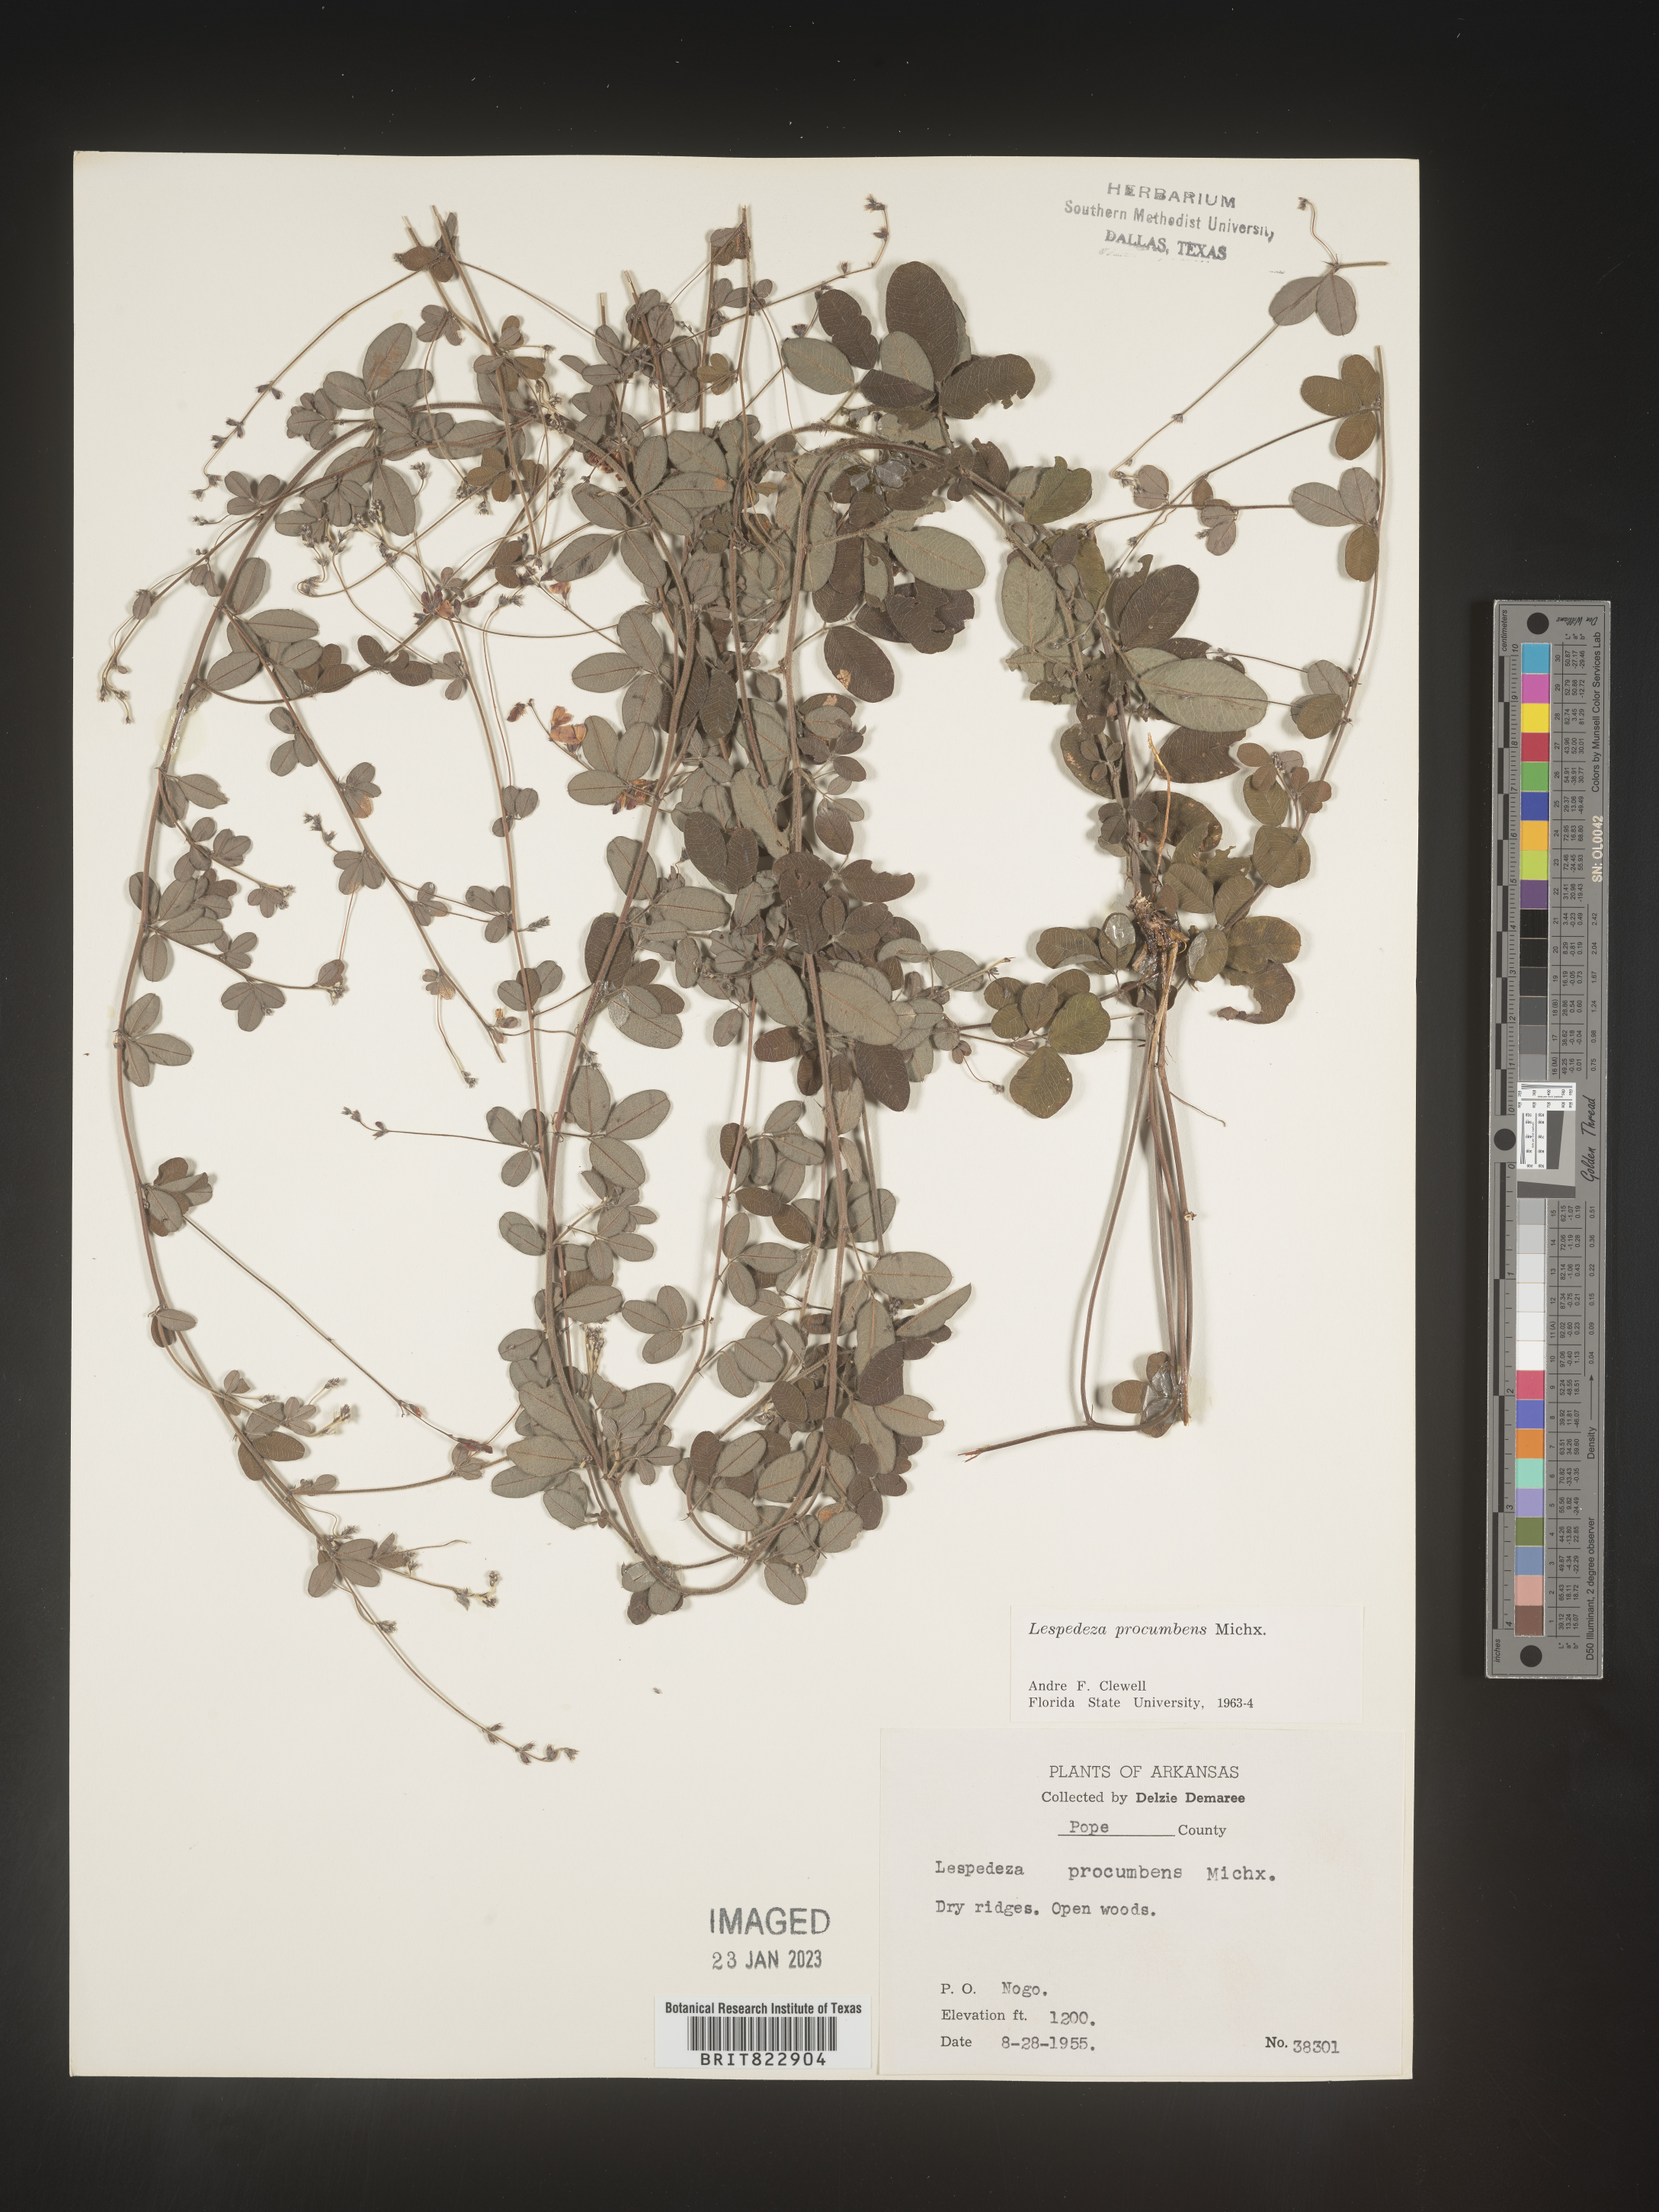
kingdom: Plantae
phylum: Tracheophyta
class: Magnoliopsida
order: Fabales
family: Fabaceae
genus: Lespedeza
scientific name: Lespedeza procumbens
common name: Downy trailing bush-clover
